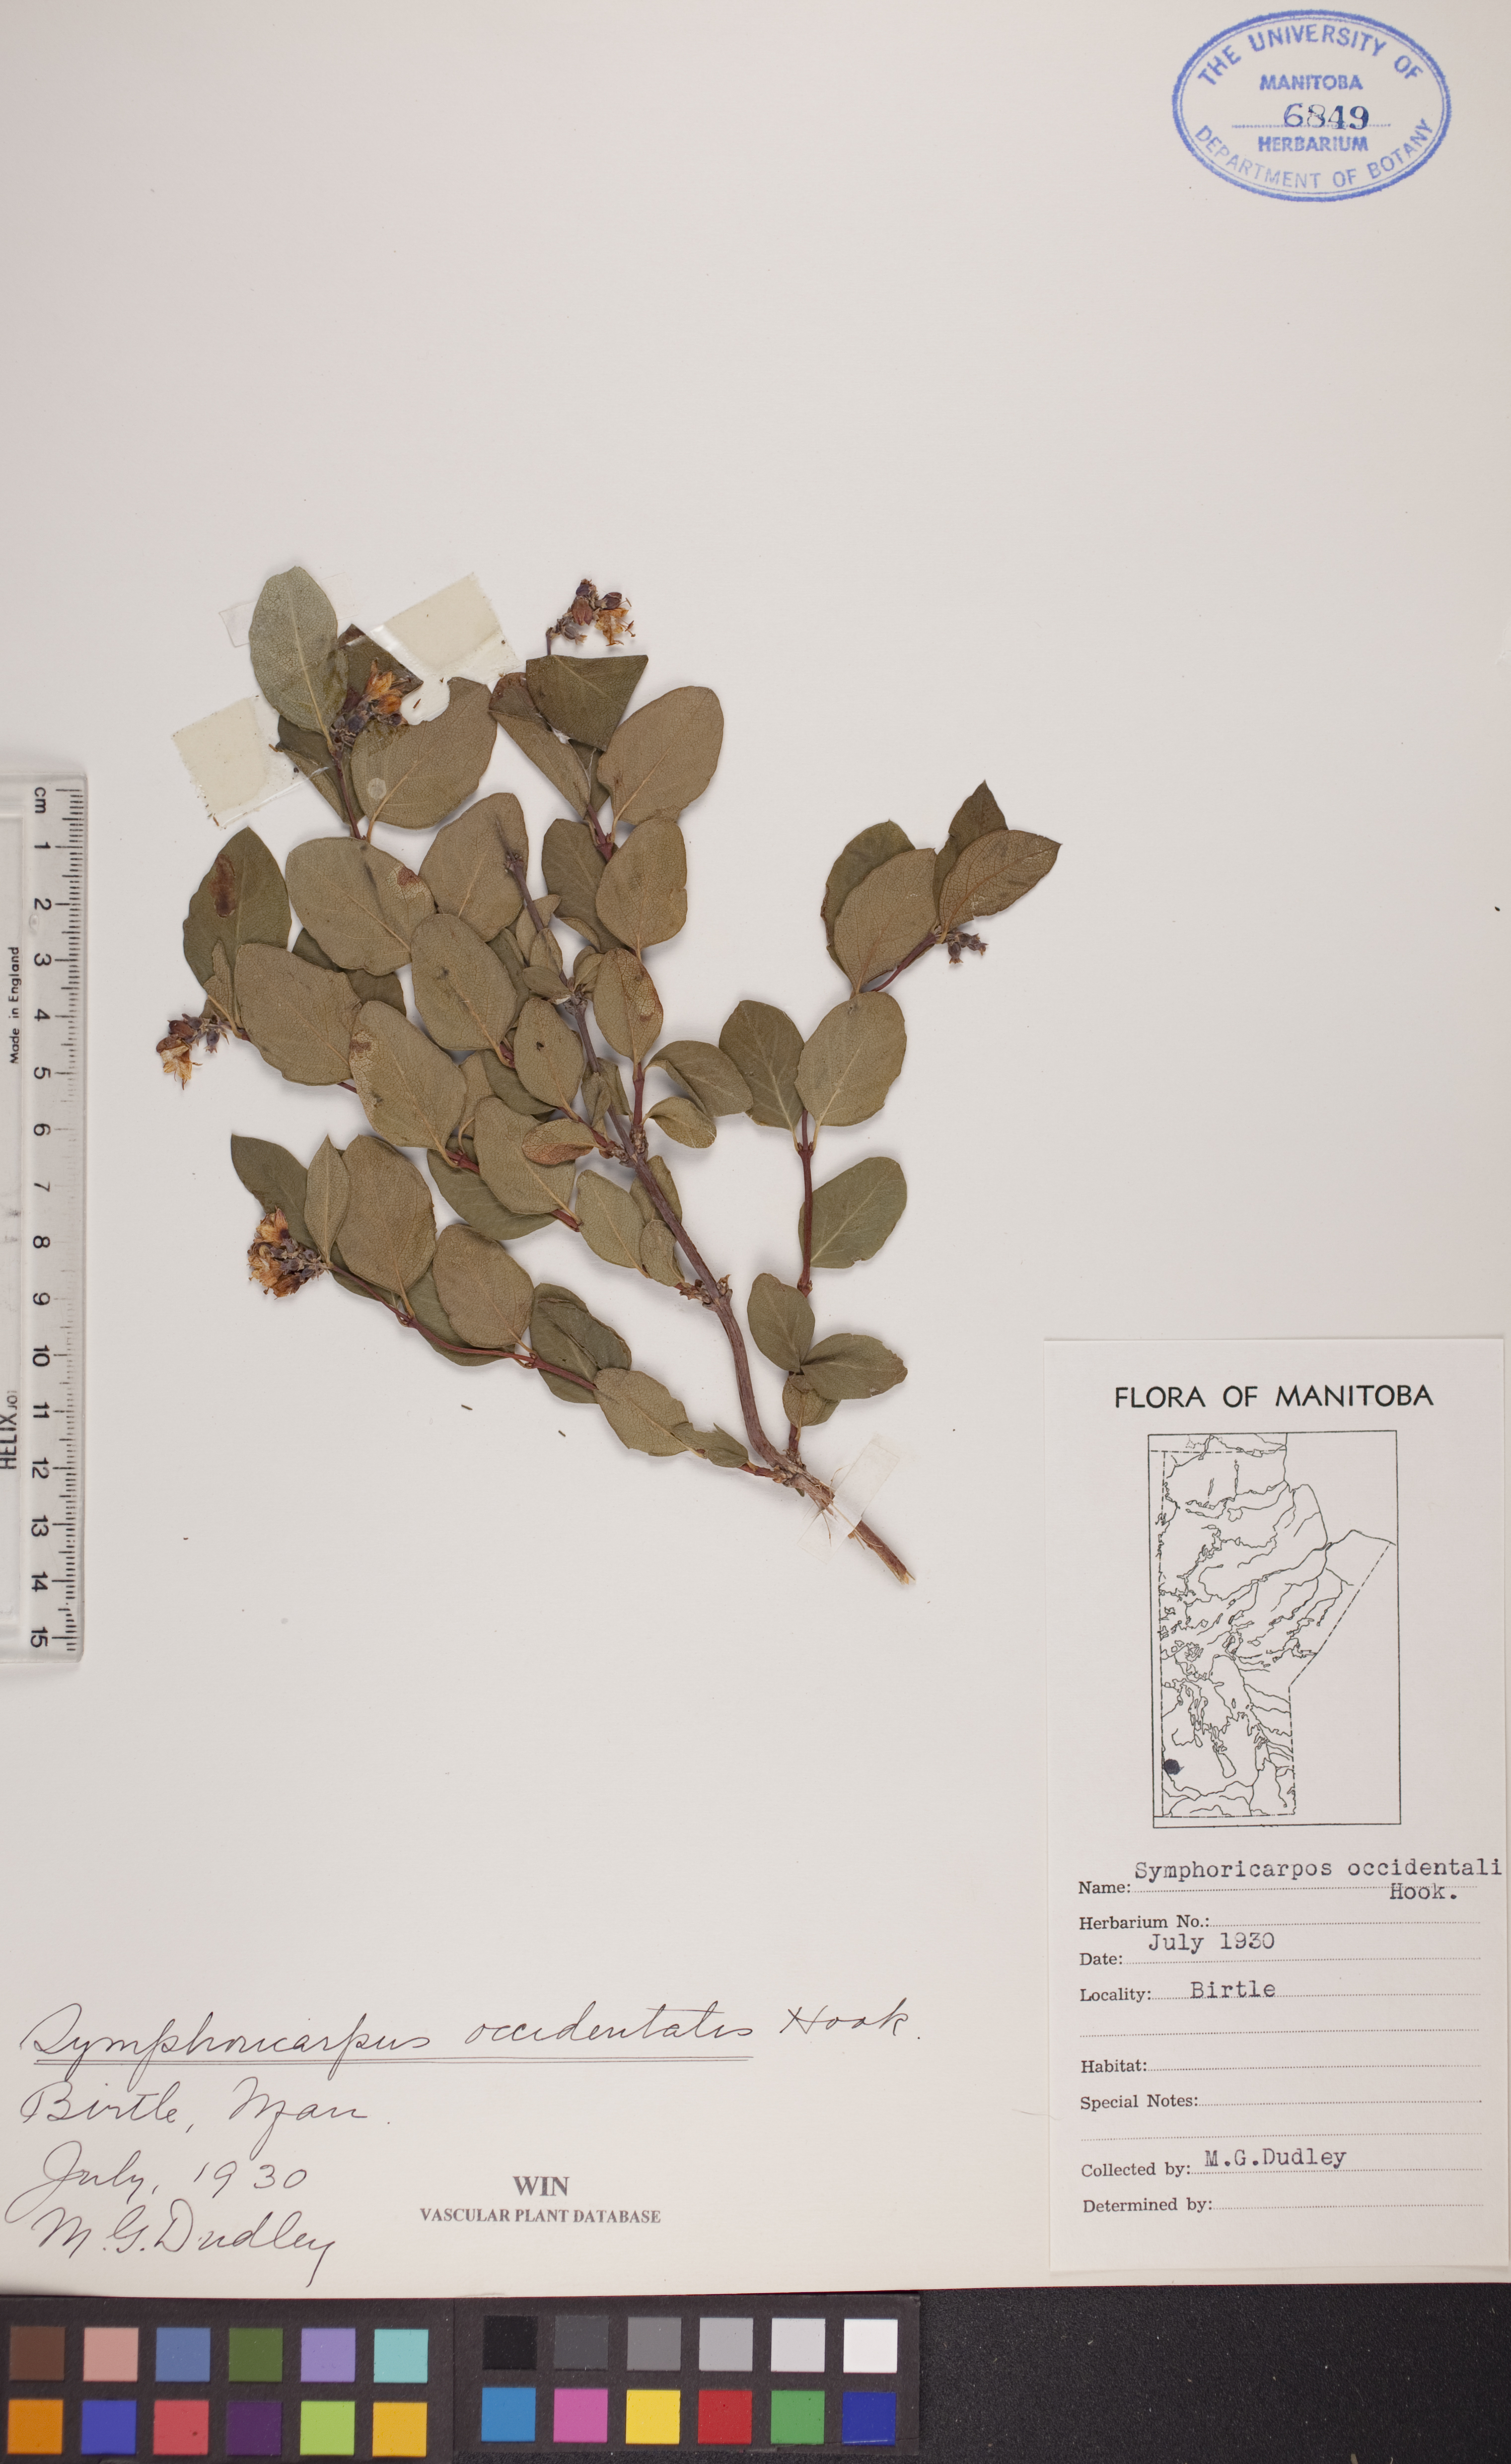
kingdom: Plantae
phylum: Tracheophyta
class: Magnoliopsida
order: Dipsacales
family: Caprifoliaceae
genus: Symphoricarpos
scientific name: Symphoricarpos occidentalis
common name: Wolfberry
